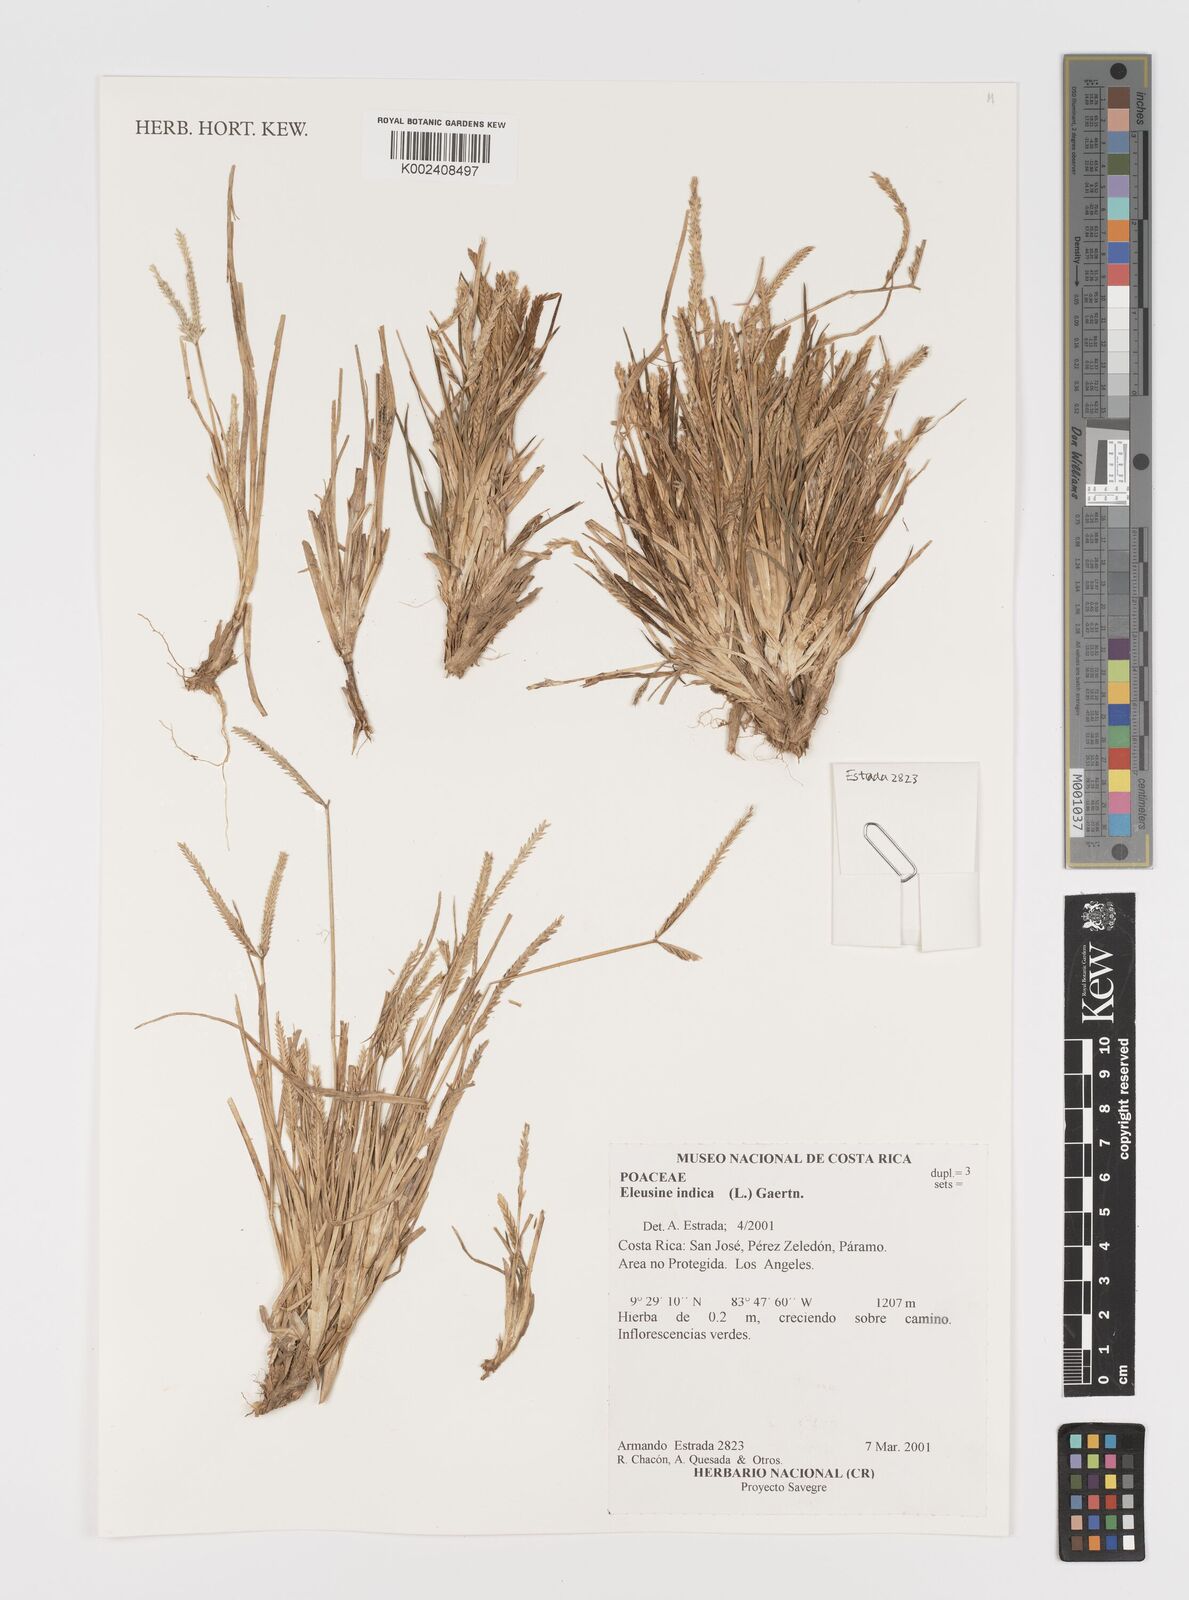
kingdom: Plantae
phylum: Tracheophyta
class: Liliopsida
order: Poales
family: Poaceae
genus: Eleusine
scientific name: Eleusine indica
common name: Yard-grass
